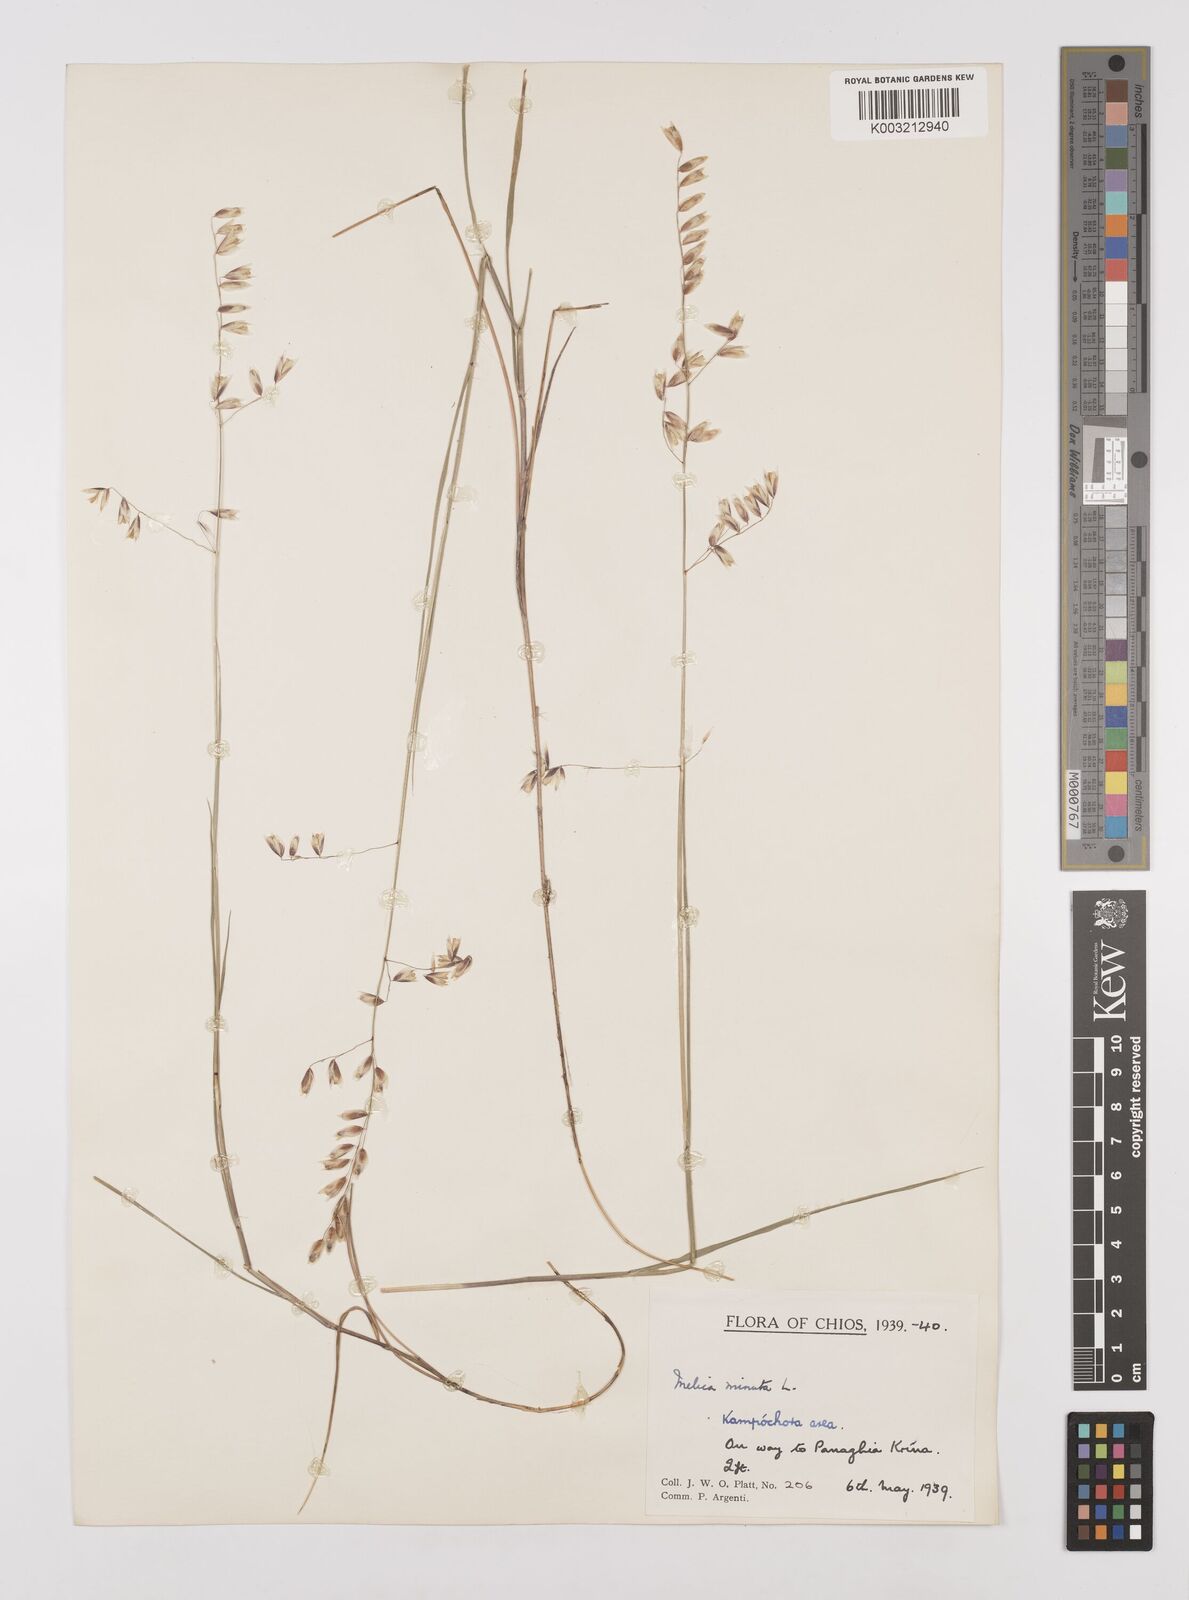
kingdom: Plantae
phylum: Tracheophyta
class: Liliopsida
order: Poales
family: Poaceae
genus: Melica
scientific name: Melica minuta
